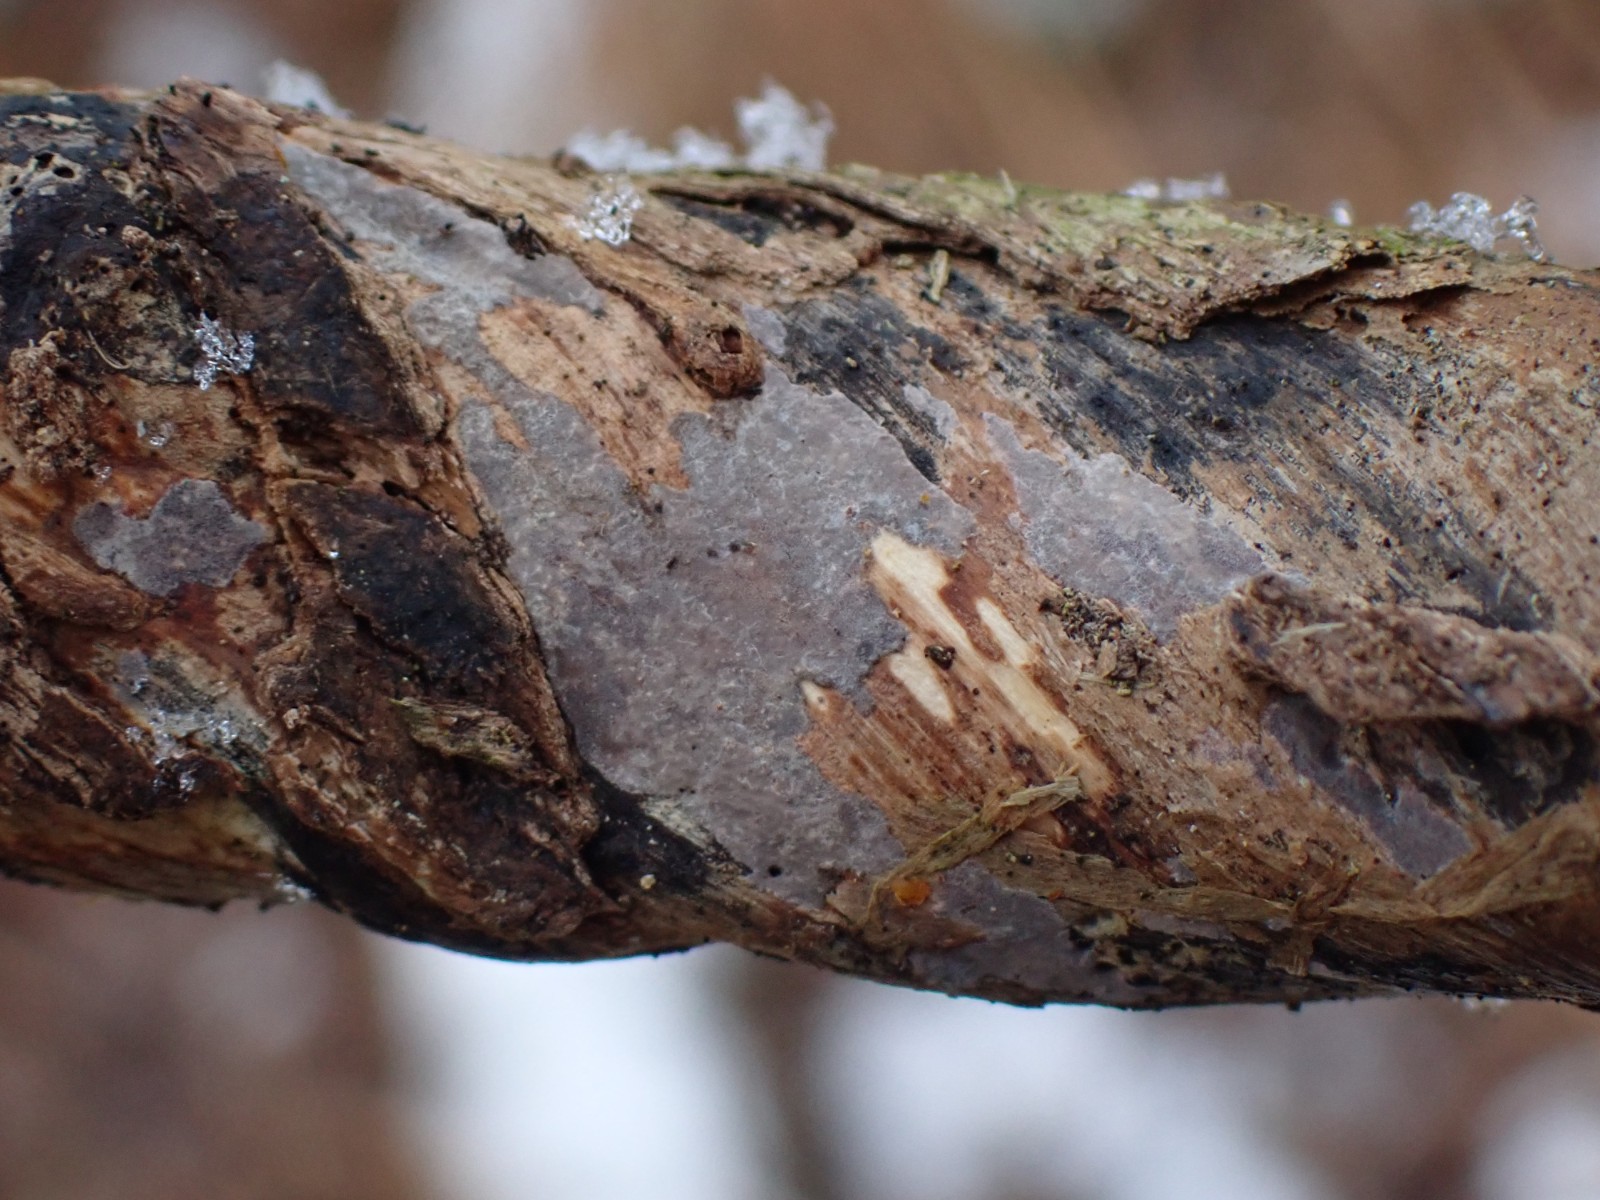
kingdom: Fungi
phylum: Basidiomycota
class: Agaricomycetes
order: Russulales
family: Peniophoraceae
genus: Peniophora
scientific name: Peniophora
